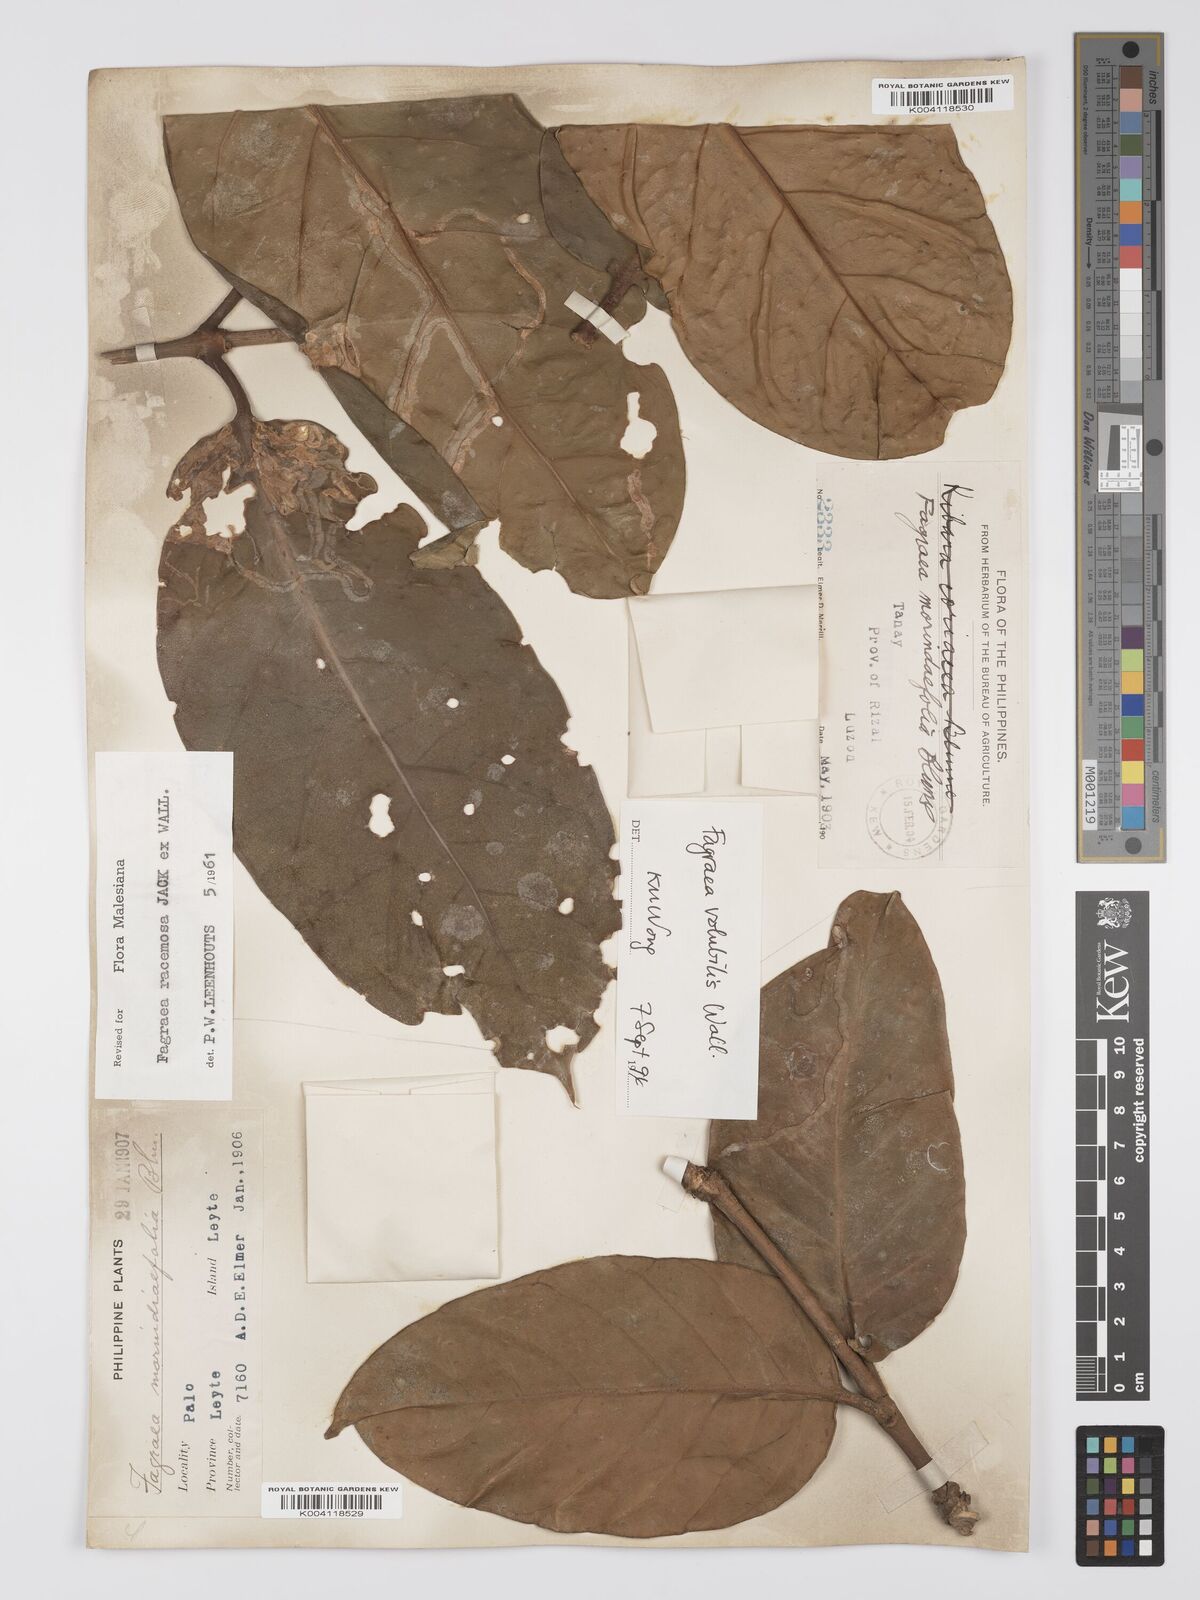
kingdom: Plantae
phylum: Tracheophyta
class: Magnoliopsida
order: Gentianales
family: Gentianaceae
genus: Utania
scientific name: Utania racemosa
